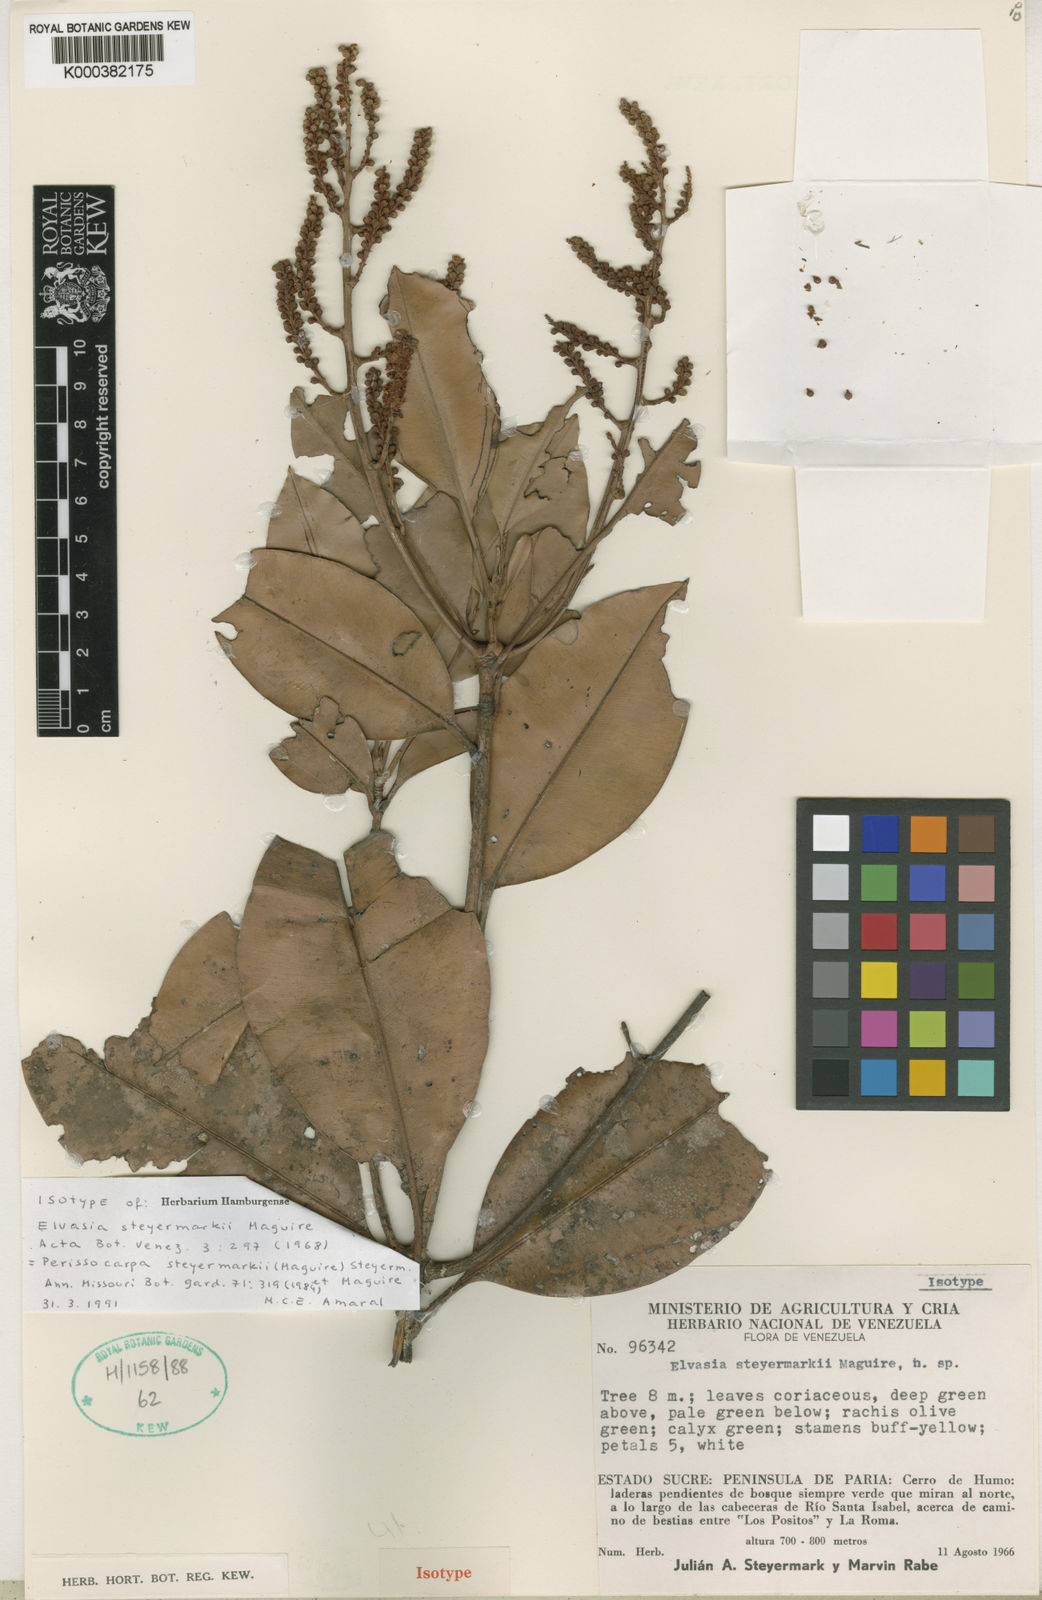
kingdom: Plantae
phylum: Tracheophyta
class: Magnoliopsida
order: Malpighiales
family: Ochnaceae
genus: Perissocarpa
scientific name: Perissocarpa steyermarkii
